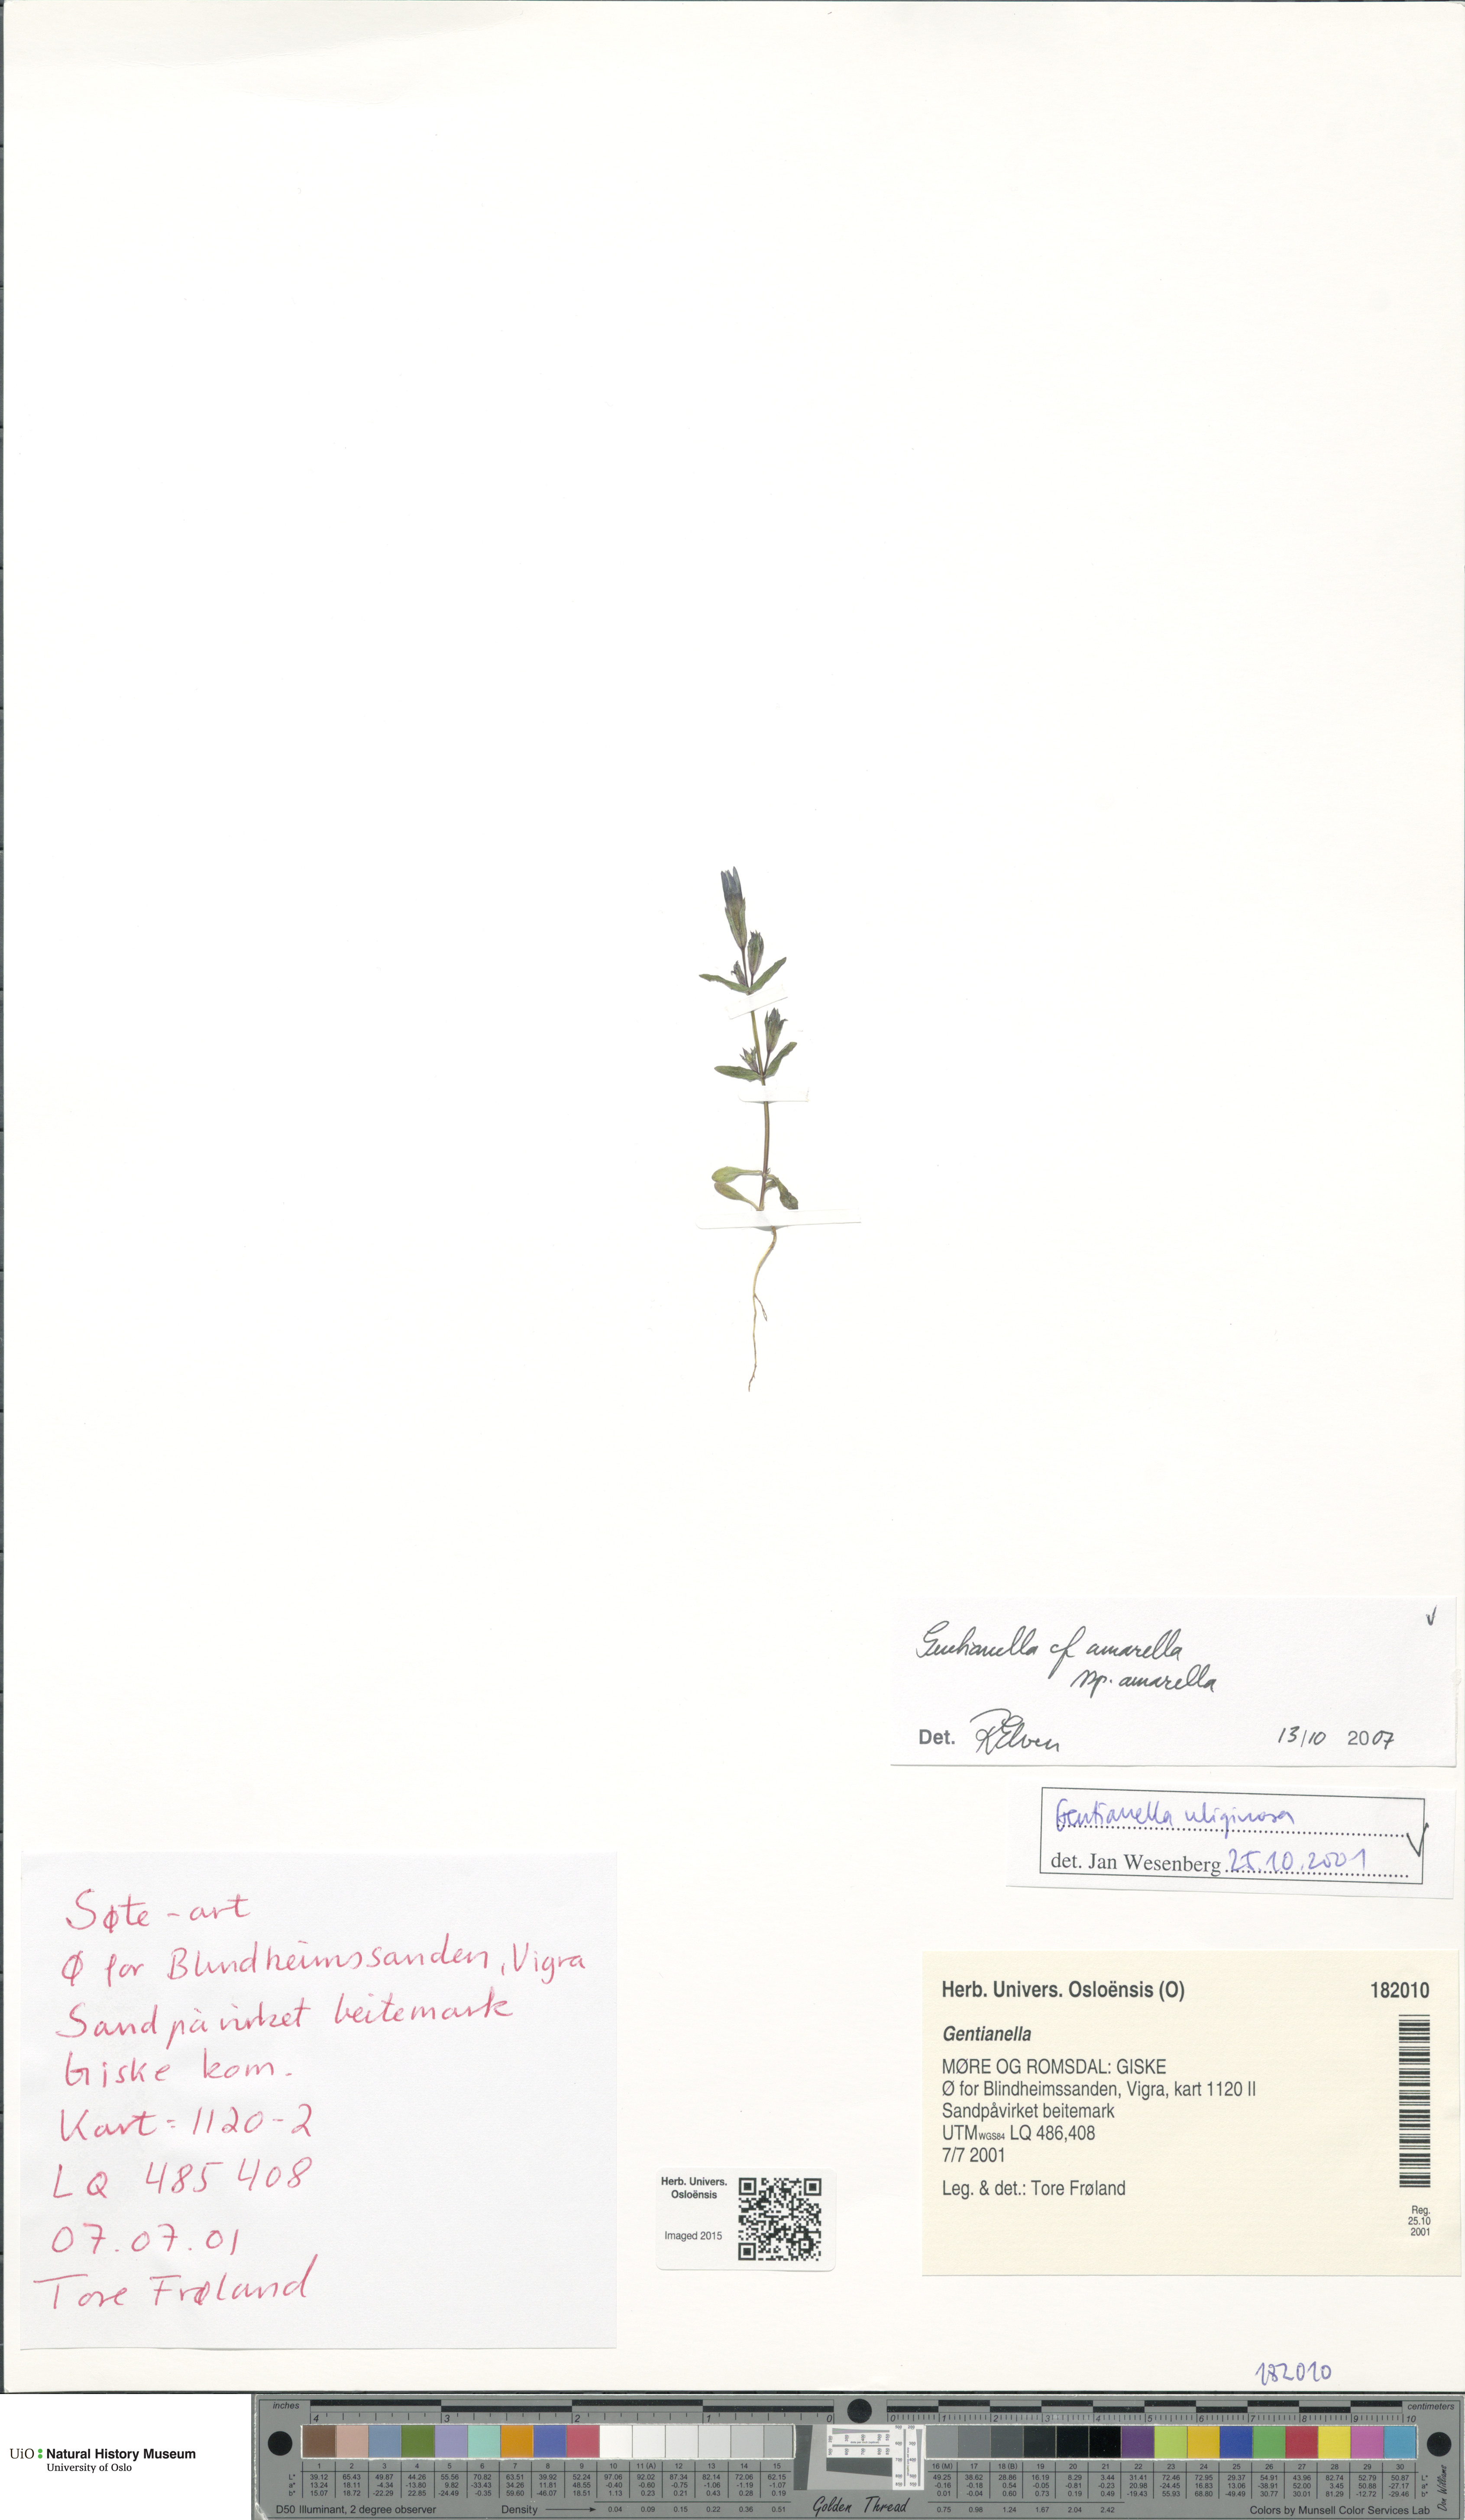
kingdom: Plantae
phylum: Tracheophyta
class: Magnoliopsida
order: Gentianales
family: Gentianaceae
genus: Gentianella
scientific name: Gentianella amarella
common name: Autumn gentian
